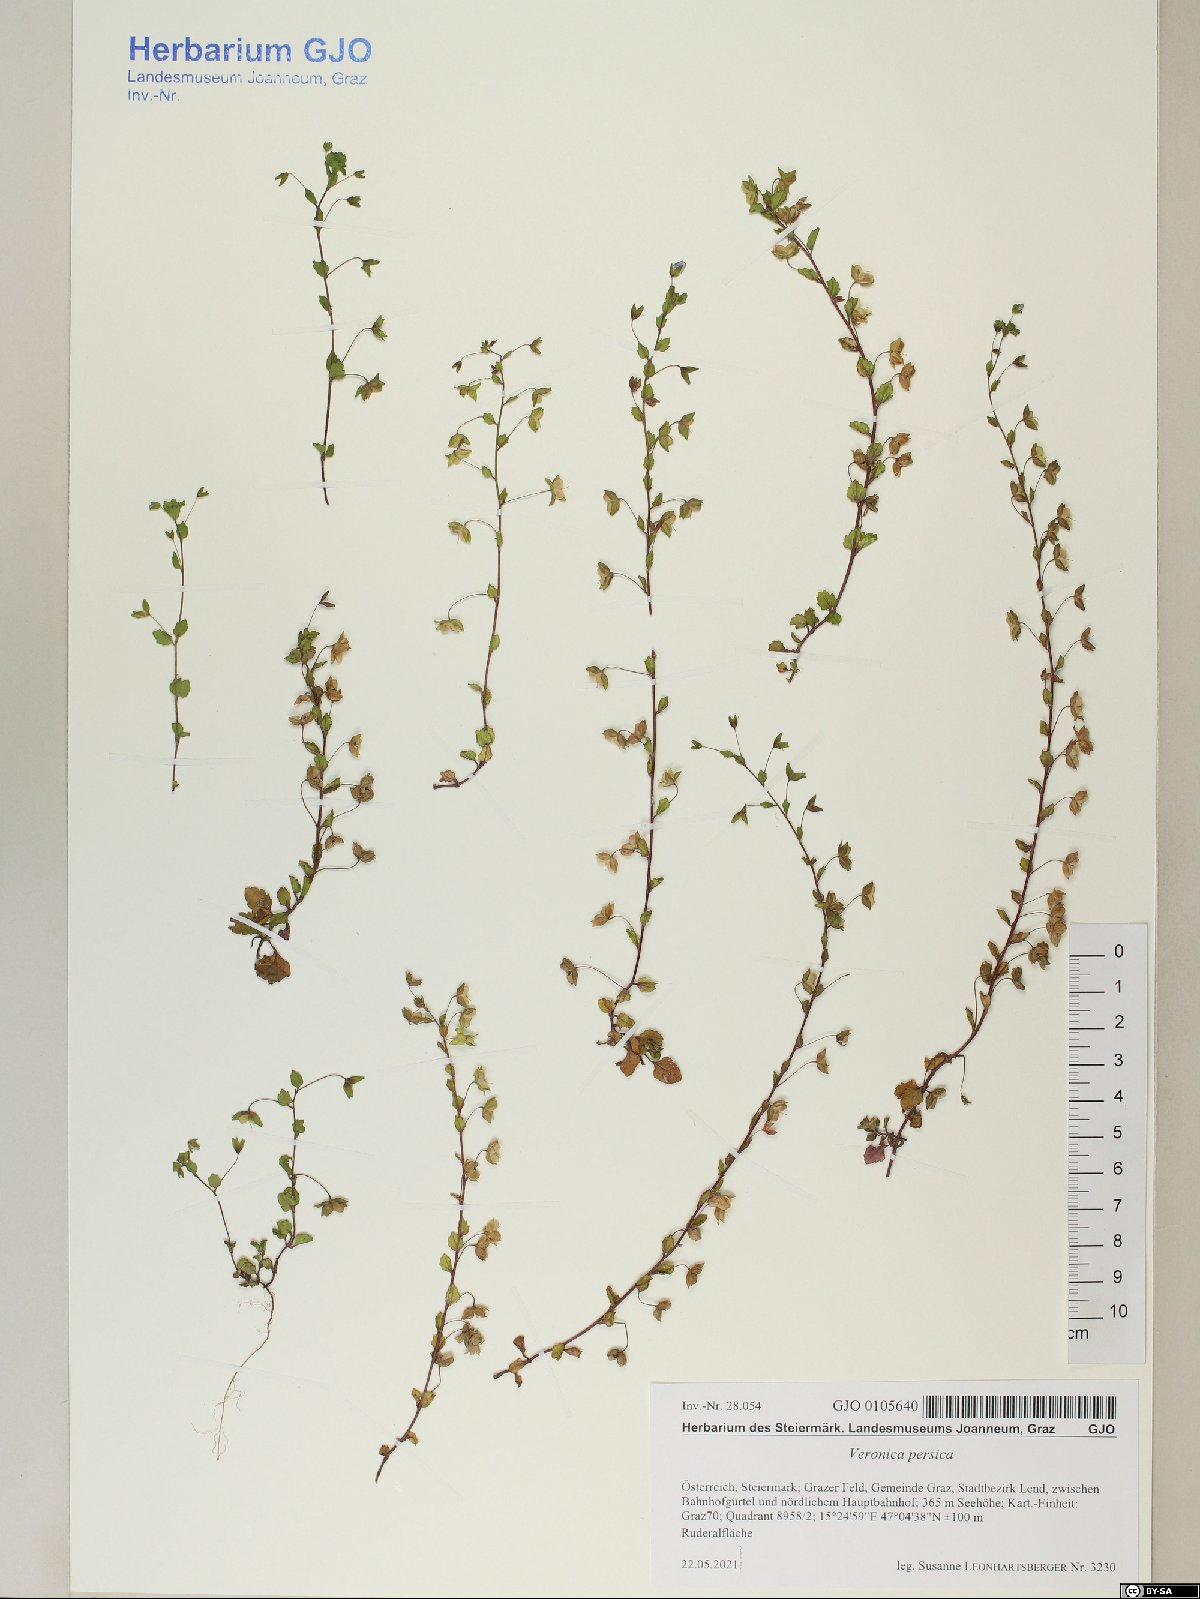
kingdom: Plantae
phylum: Tracheophyta
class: Magnoliopsida
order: Lamiales
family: Plantaginaceae
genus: Veronica
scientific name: Veronica persica
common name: Common field-speedwell
